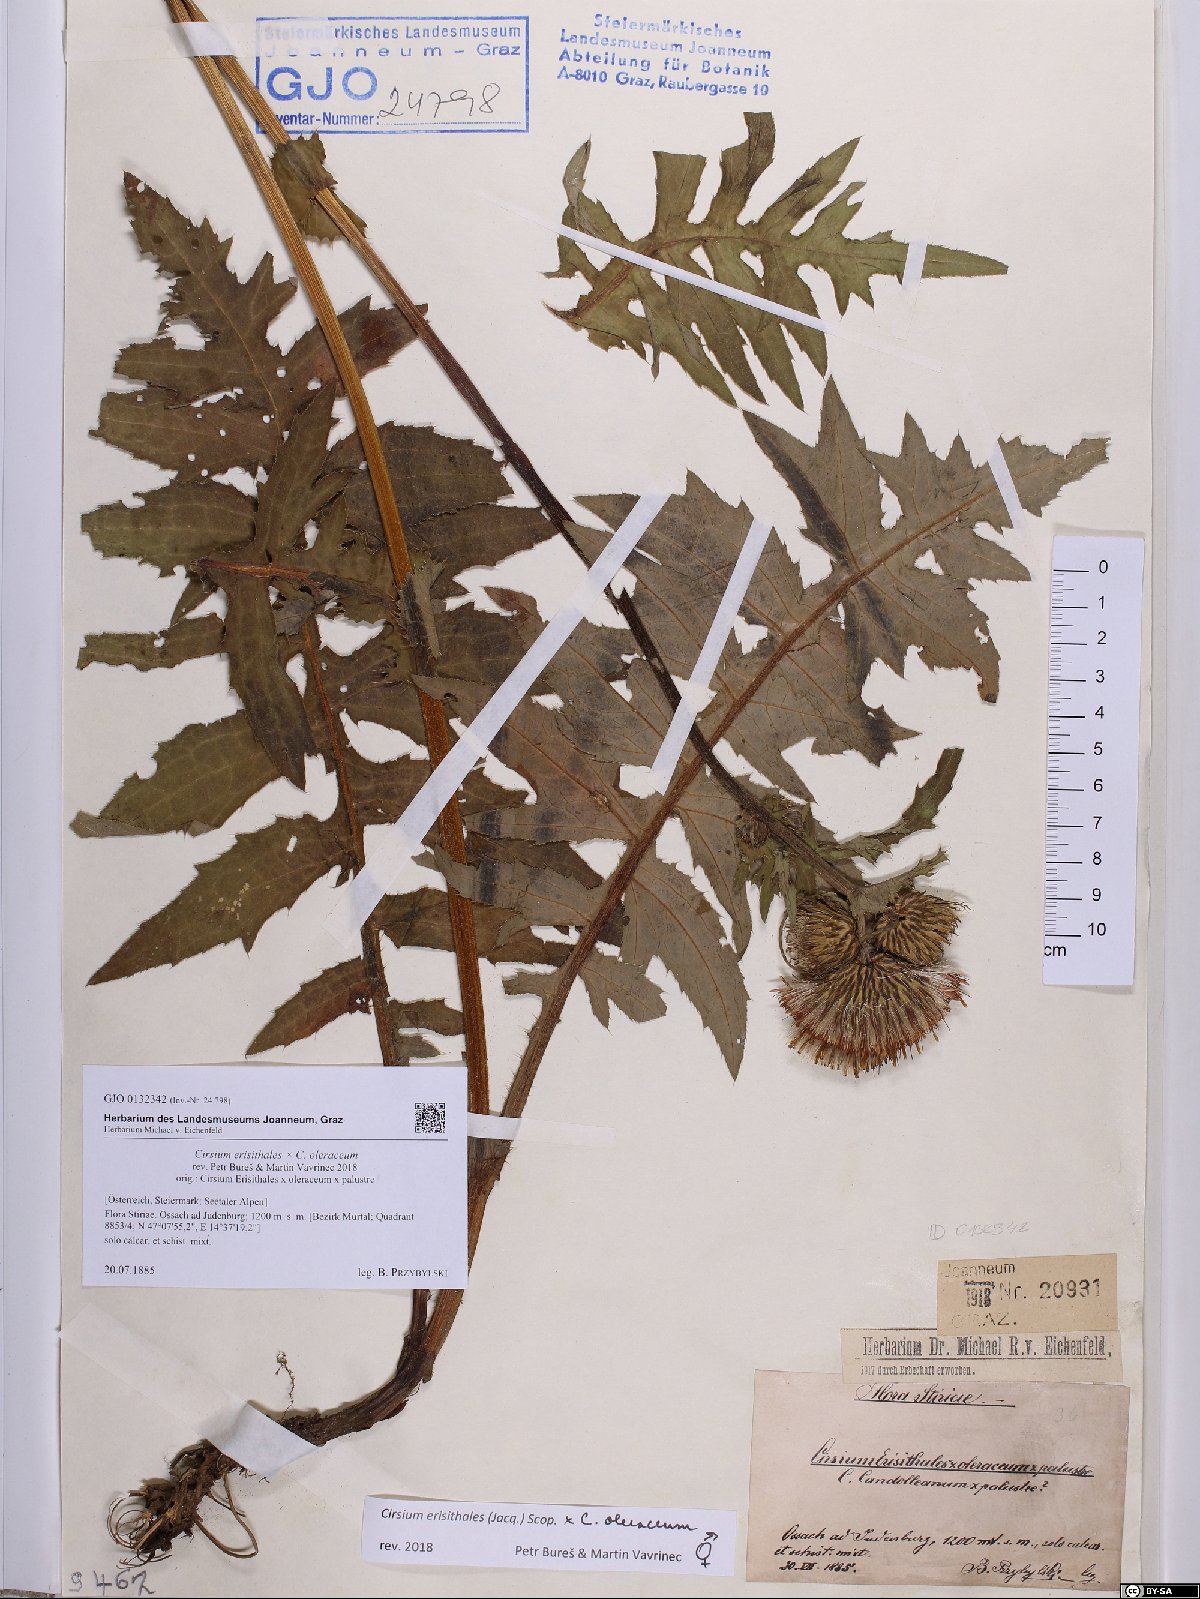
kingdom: Plantae
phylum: Tracheophyta
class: Magnoliopsida
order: Asterales
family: Asteraceae
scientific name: Asteraceae
